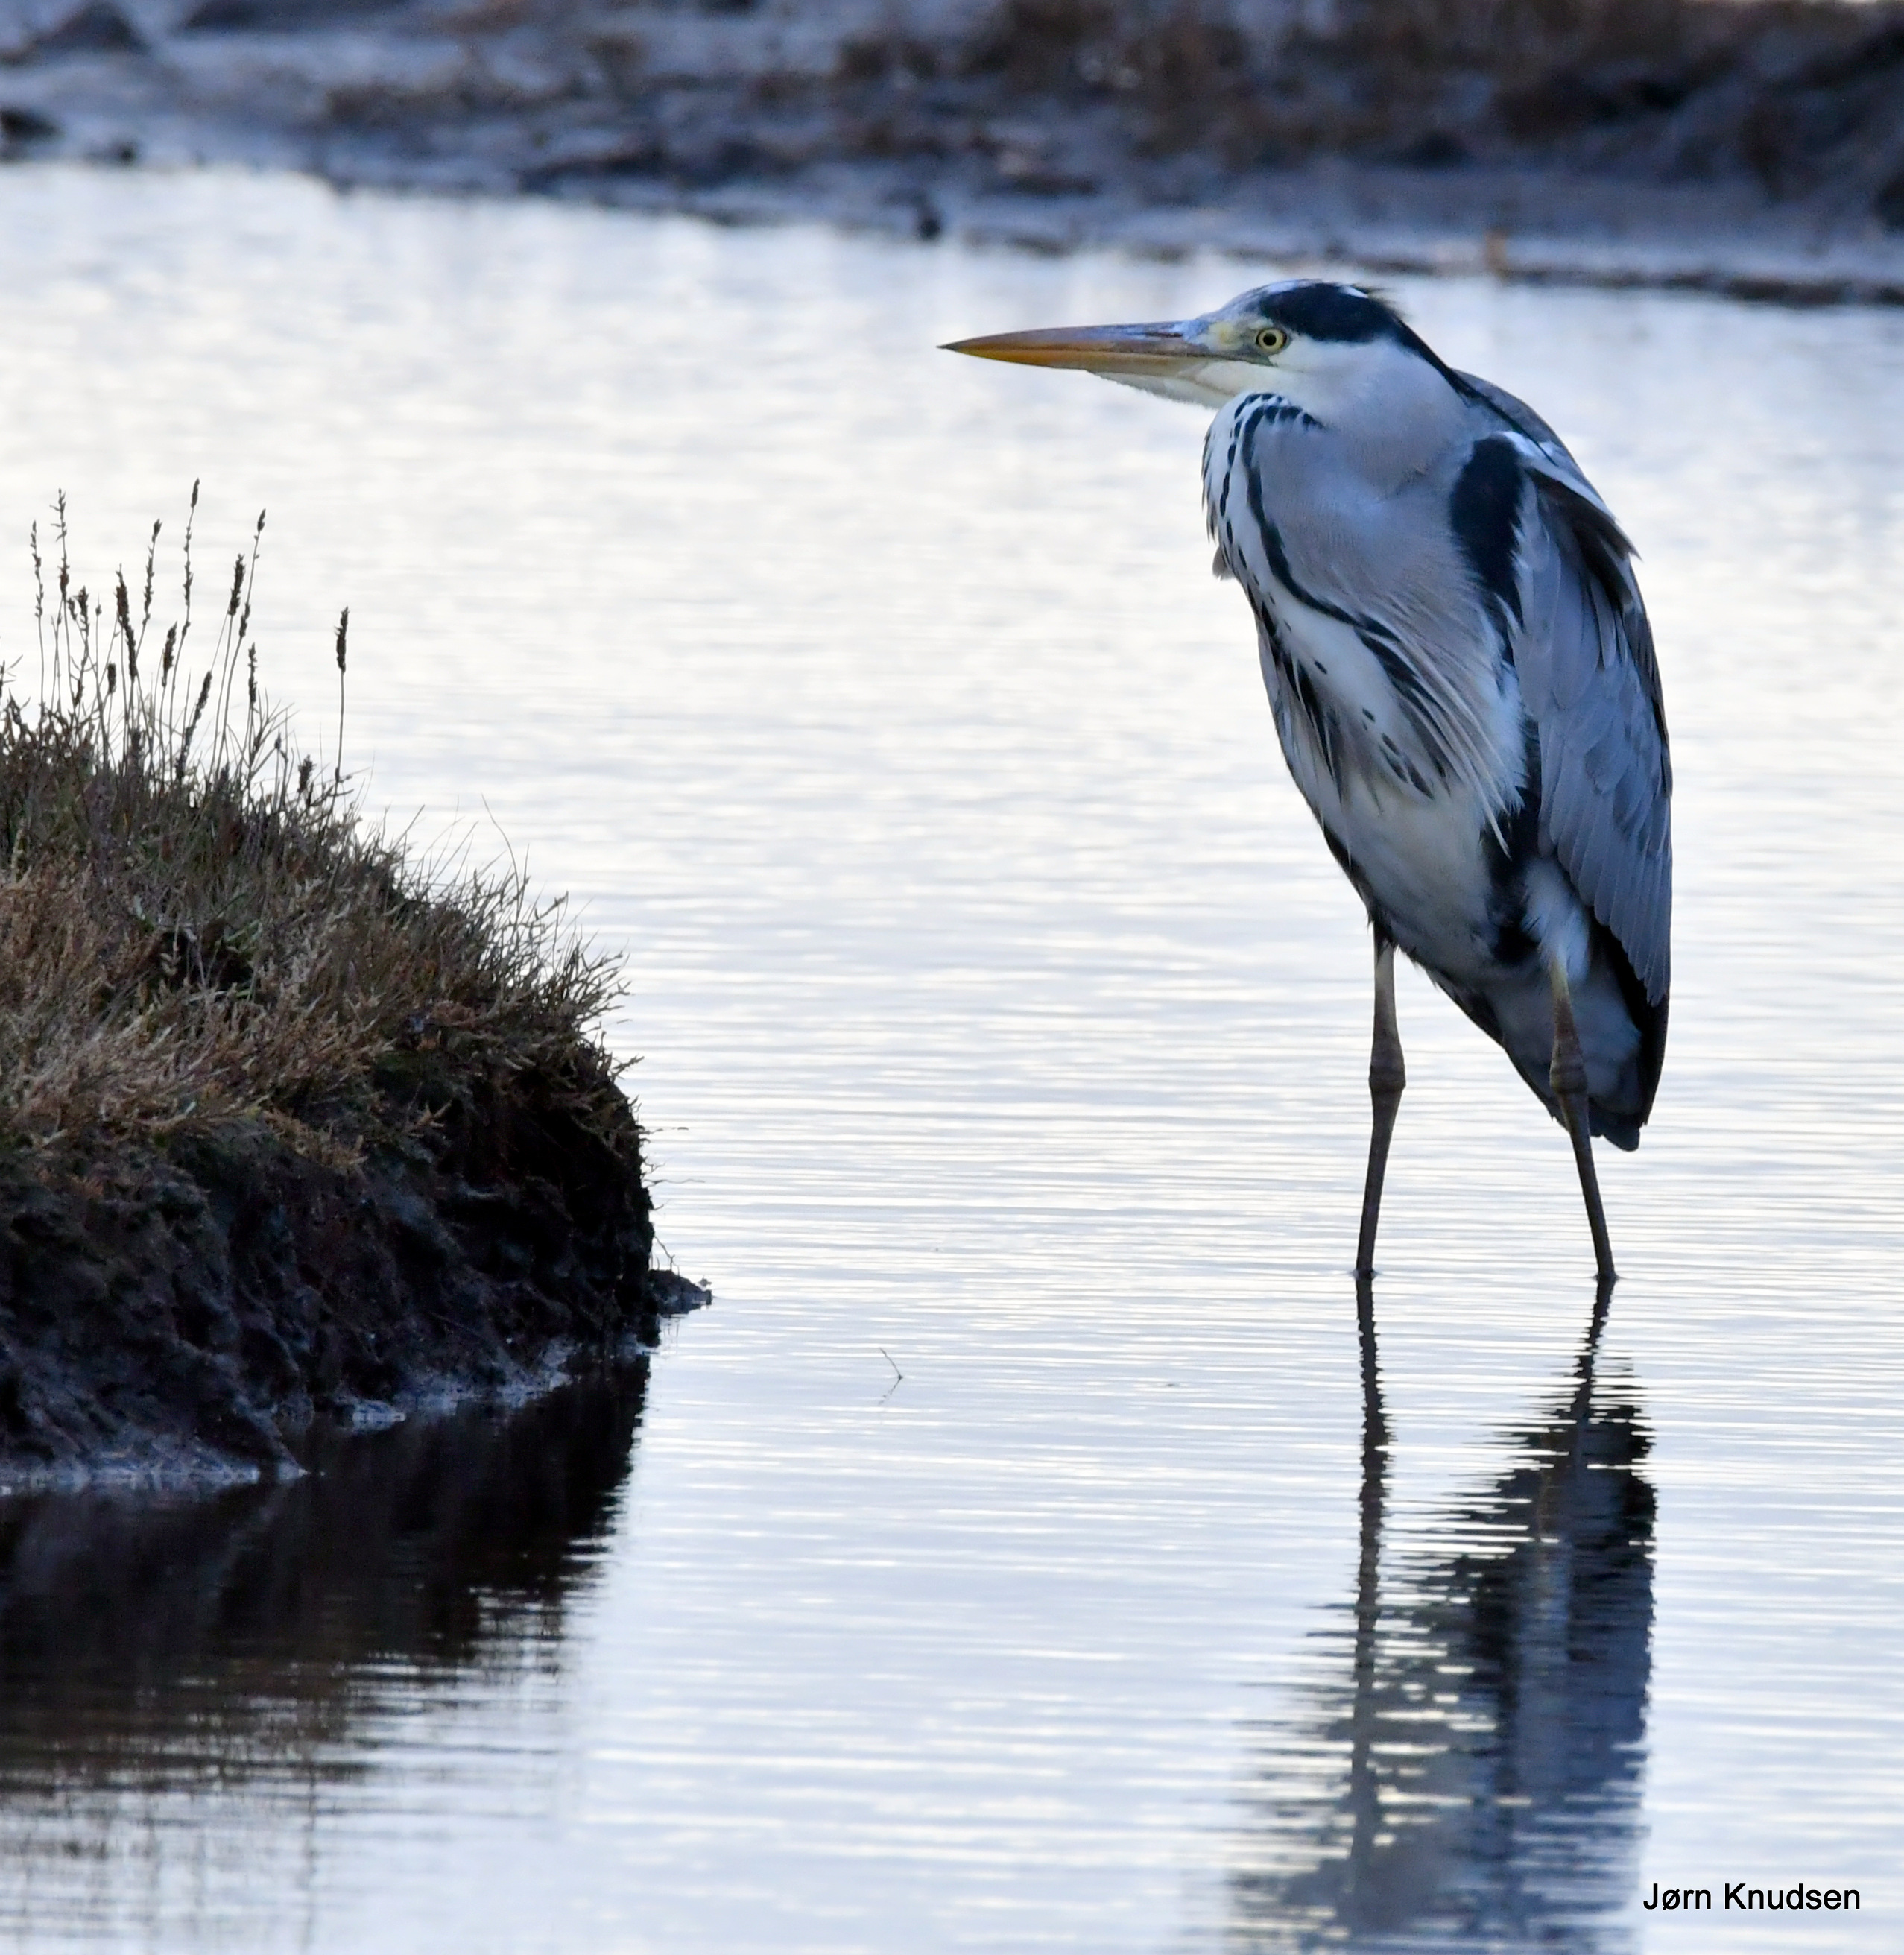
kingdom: Animalia
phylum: Chordata
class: Aves
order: Pelecaniformes
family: Ardeidae
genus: Ardea
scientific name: Ardea cinerea
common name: Fiskehejre
